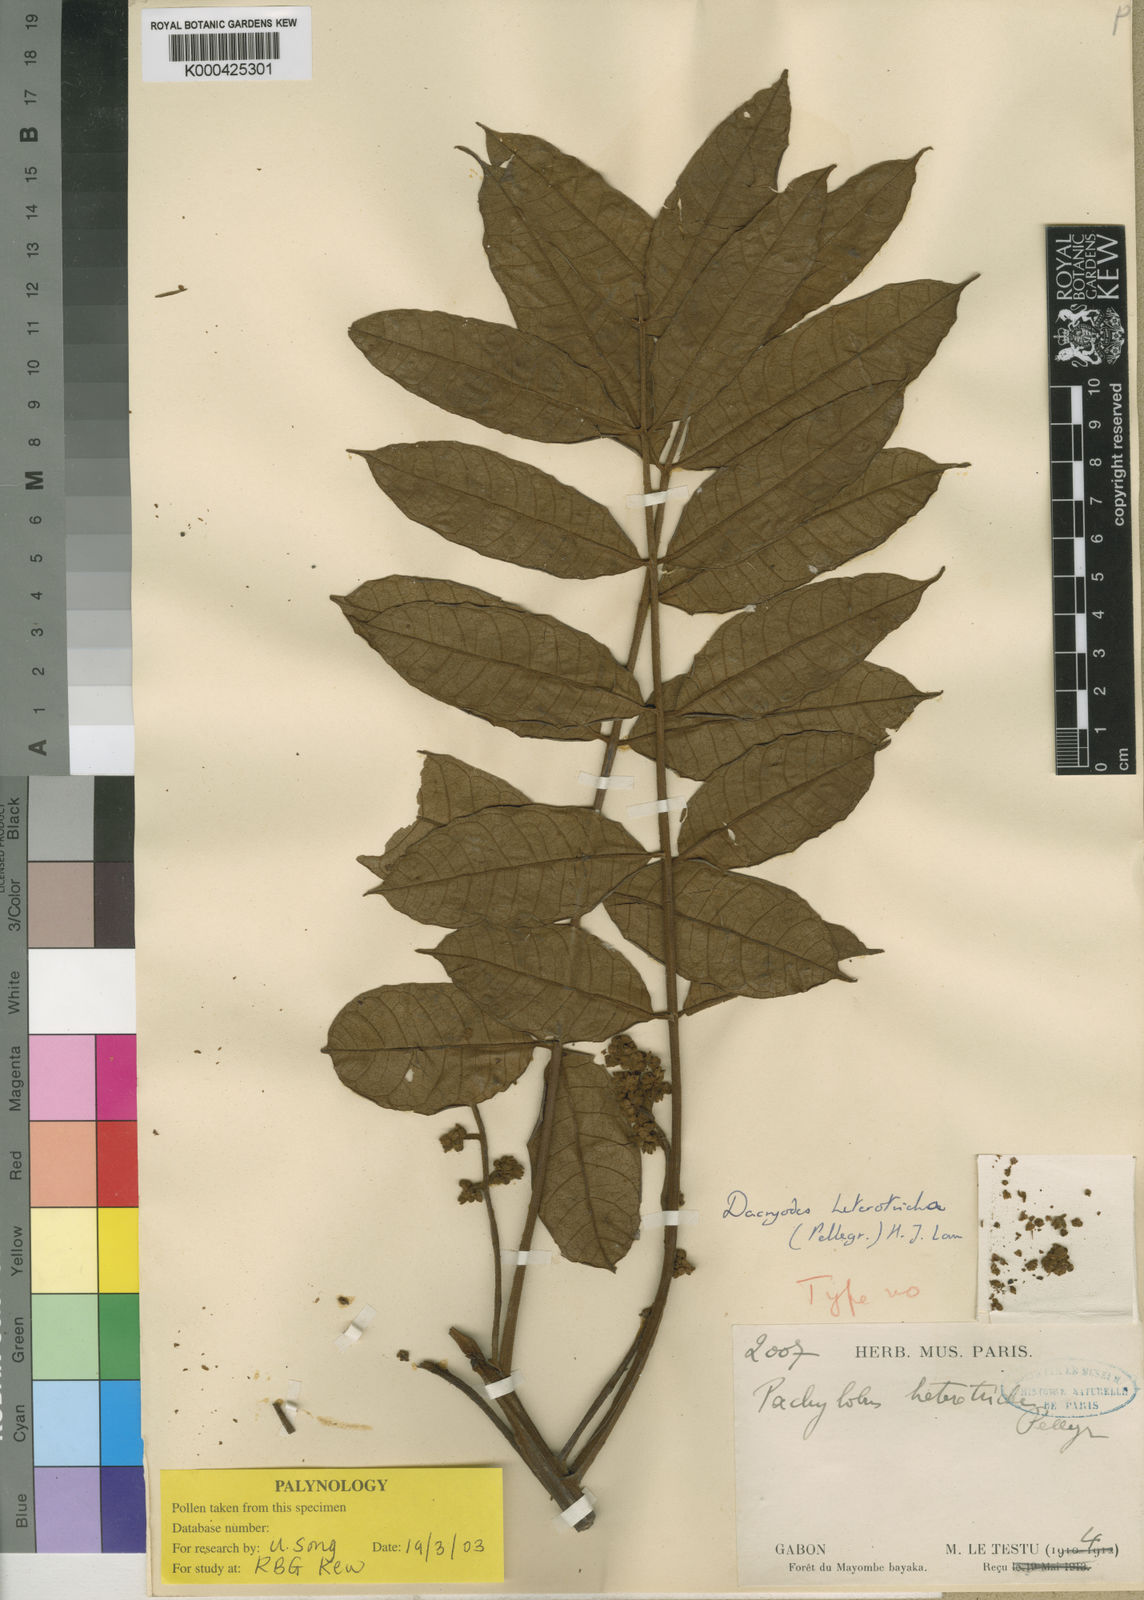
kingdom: Plantae
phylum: Tracheophyta
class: Magnoliopsida
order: Sapindales
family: Burseraceae
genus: Pachylobus
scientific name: Pachylobus heterotrichus
